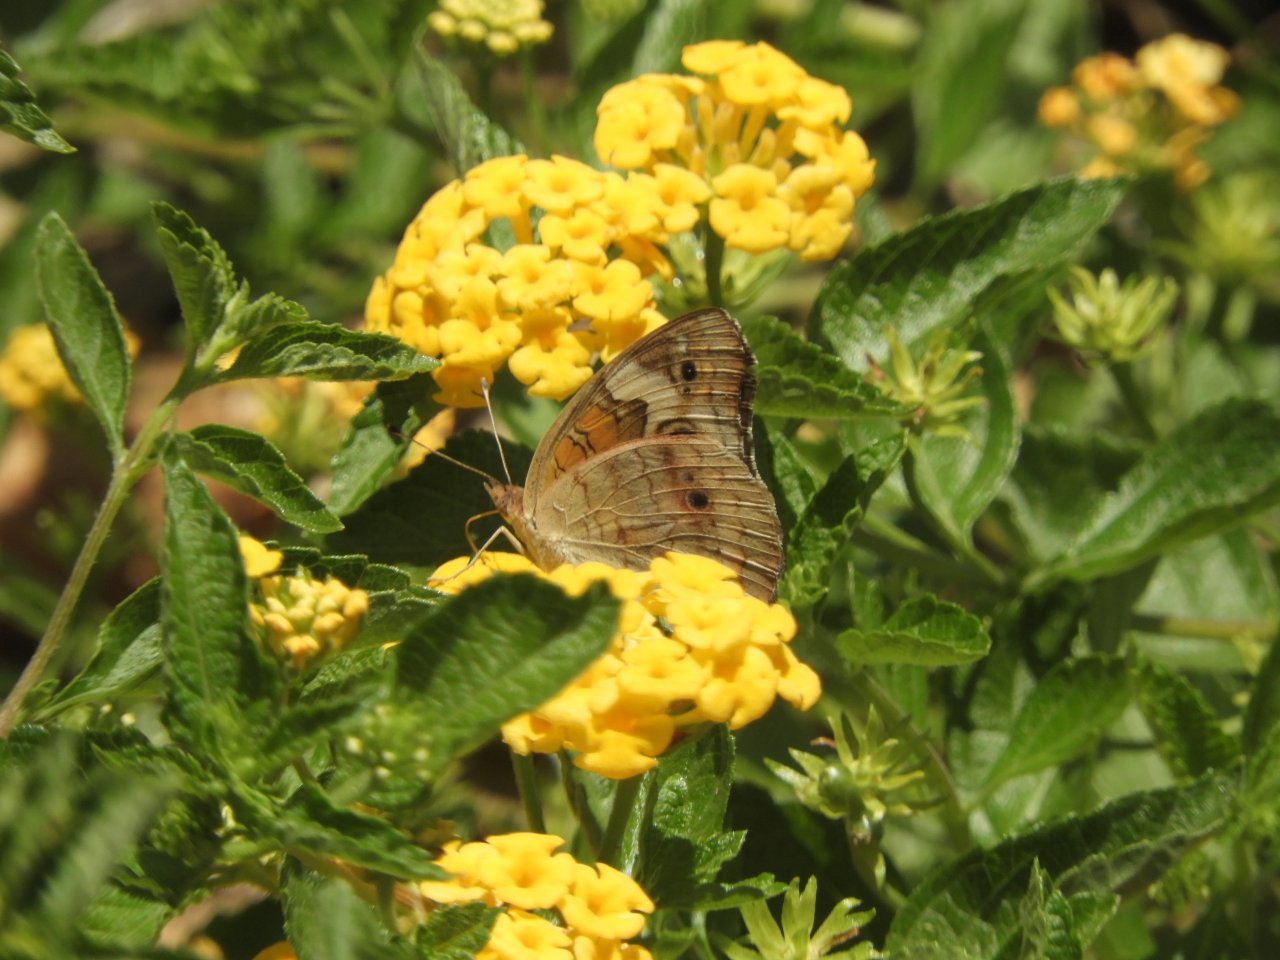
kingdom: Animalia
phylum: Arthropoda
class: Insecta
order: Lepidoptera
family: Nymphalidae
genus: Junonia
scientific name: Junonia coenia
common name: Common Buckeye
